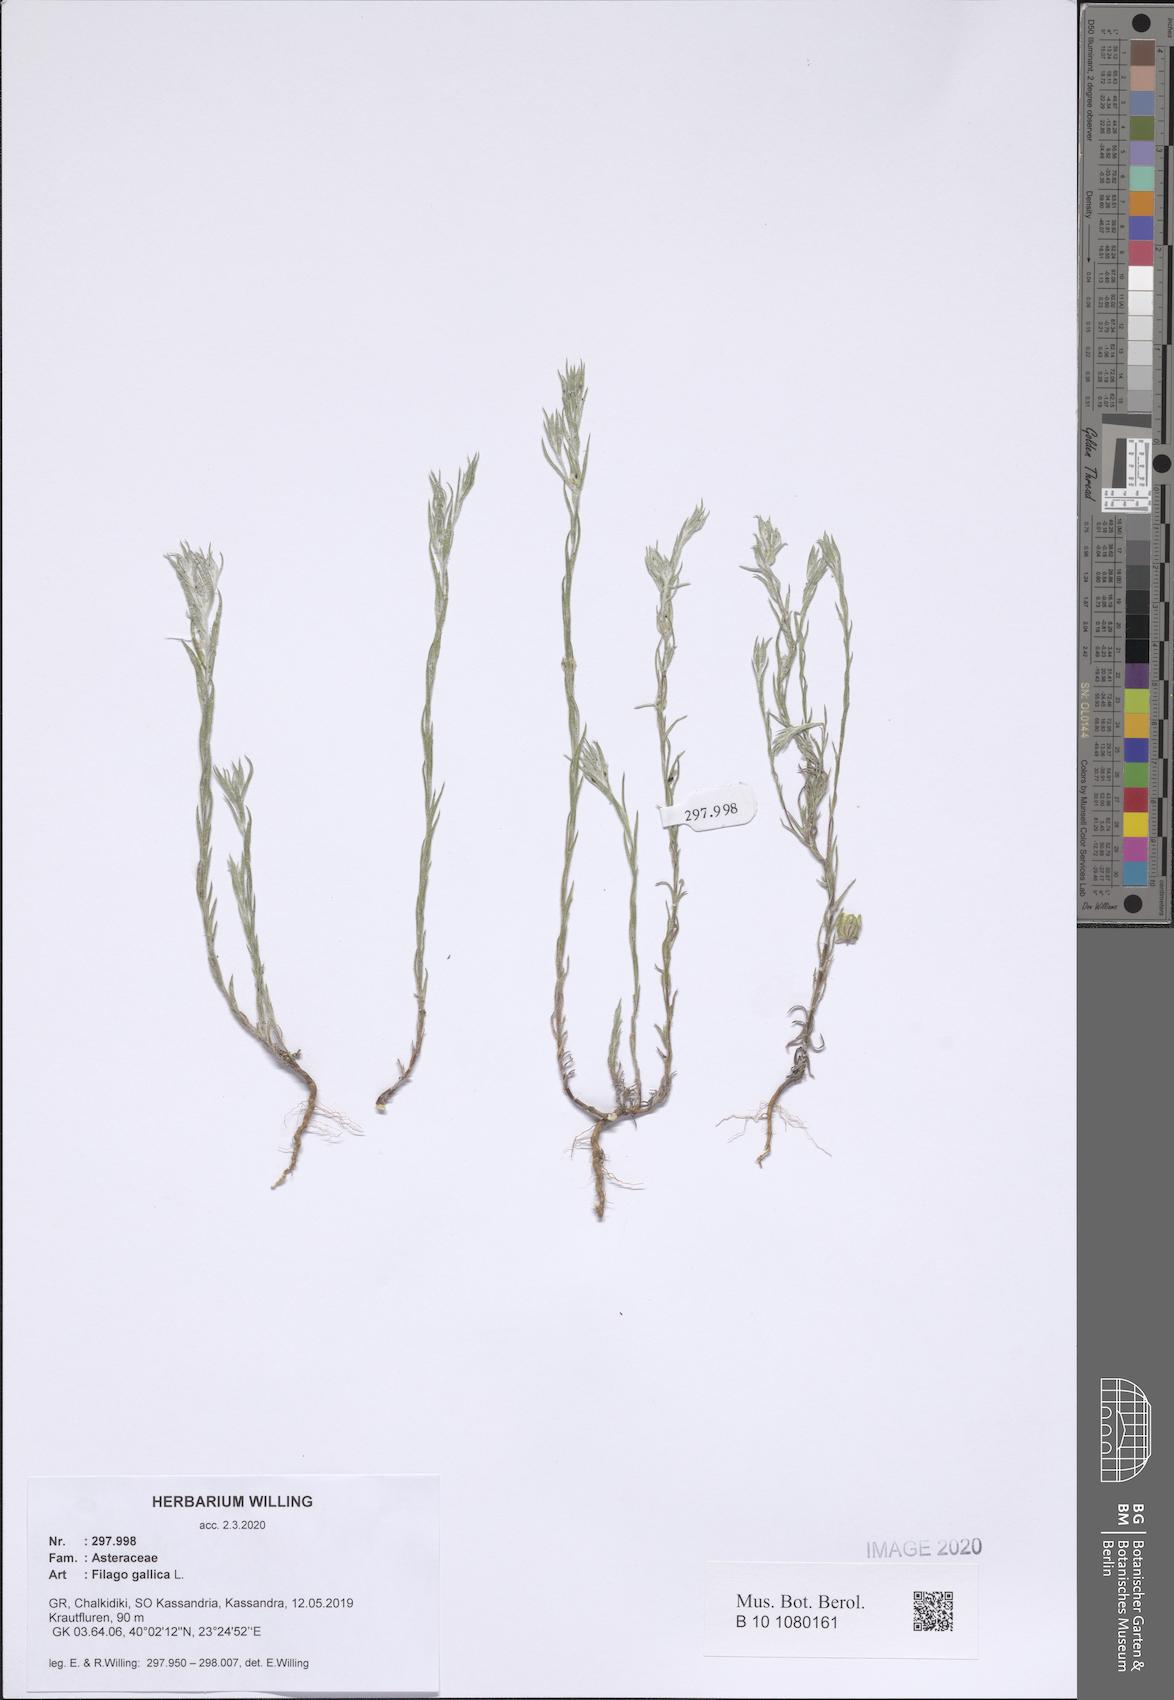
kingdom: Plantae
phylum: Tracheophyta
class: Magnoliopsida
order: Asterales
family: Asteraceae
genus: Logfia
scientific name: Logfia gallica
